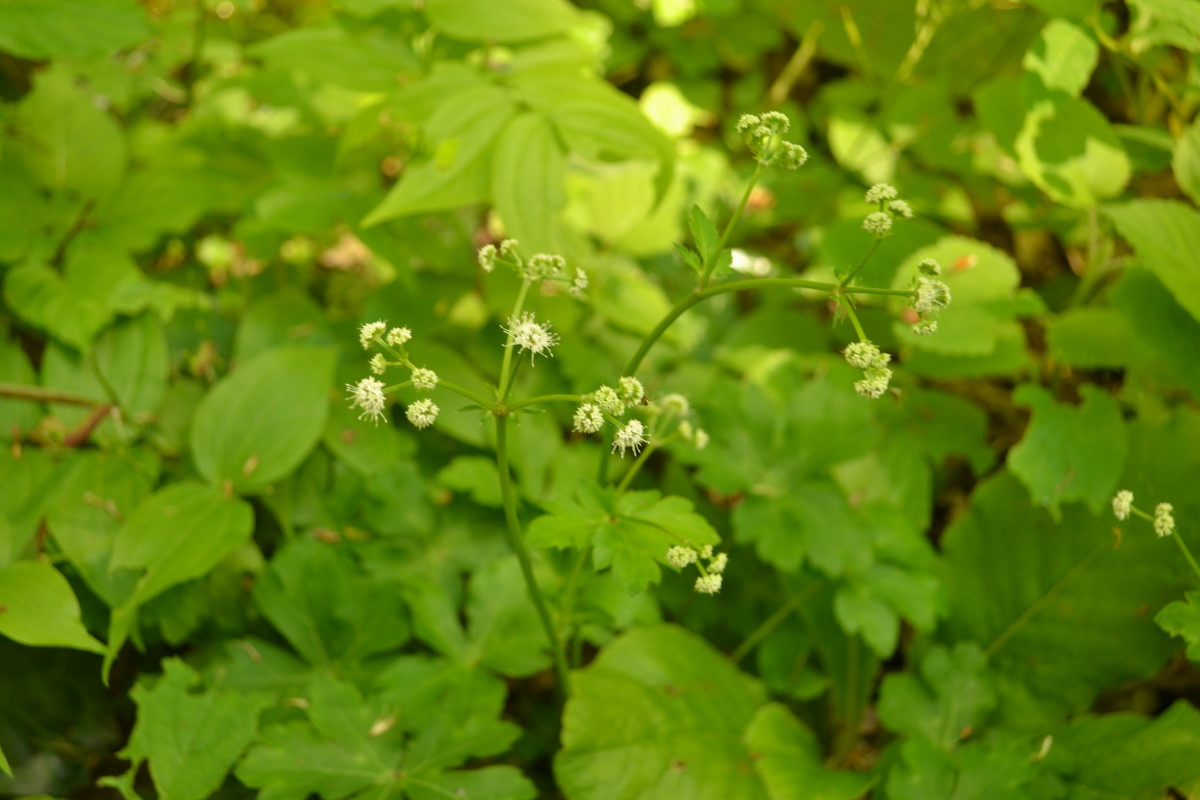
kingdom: Plantae
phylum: Tracheophyta
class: Magnoliopsida
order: Apiales
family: Apiaceae
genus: Sanicula
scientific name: Sanicula europaea
